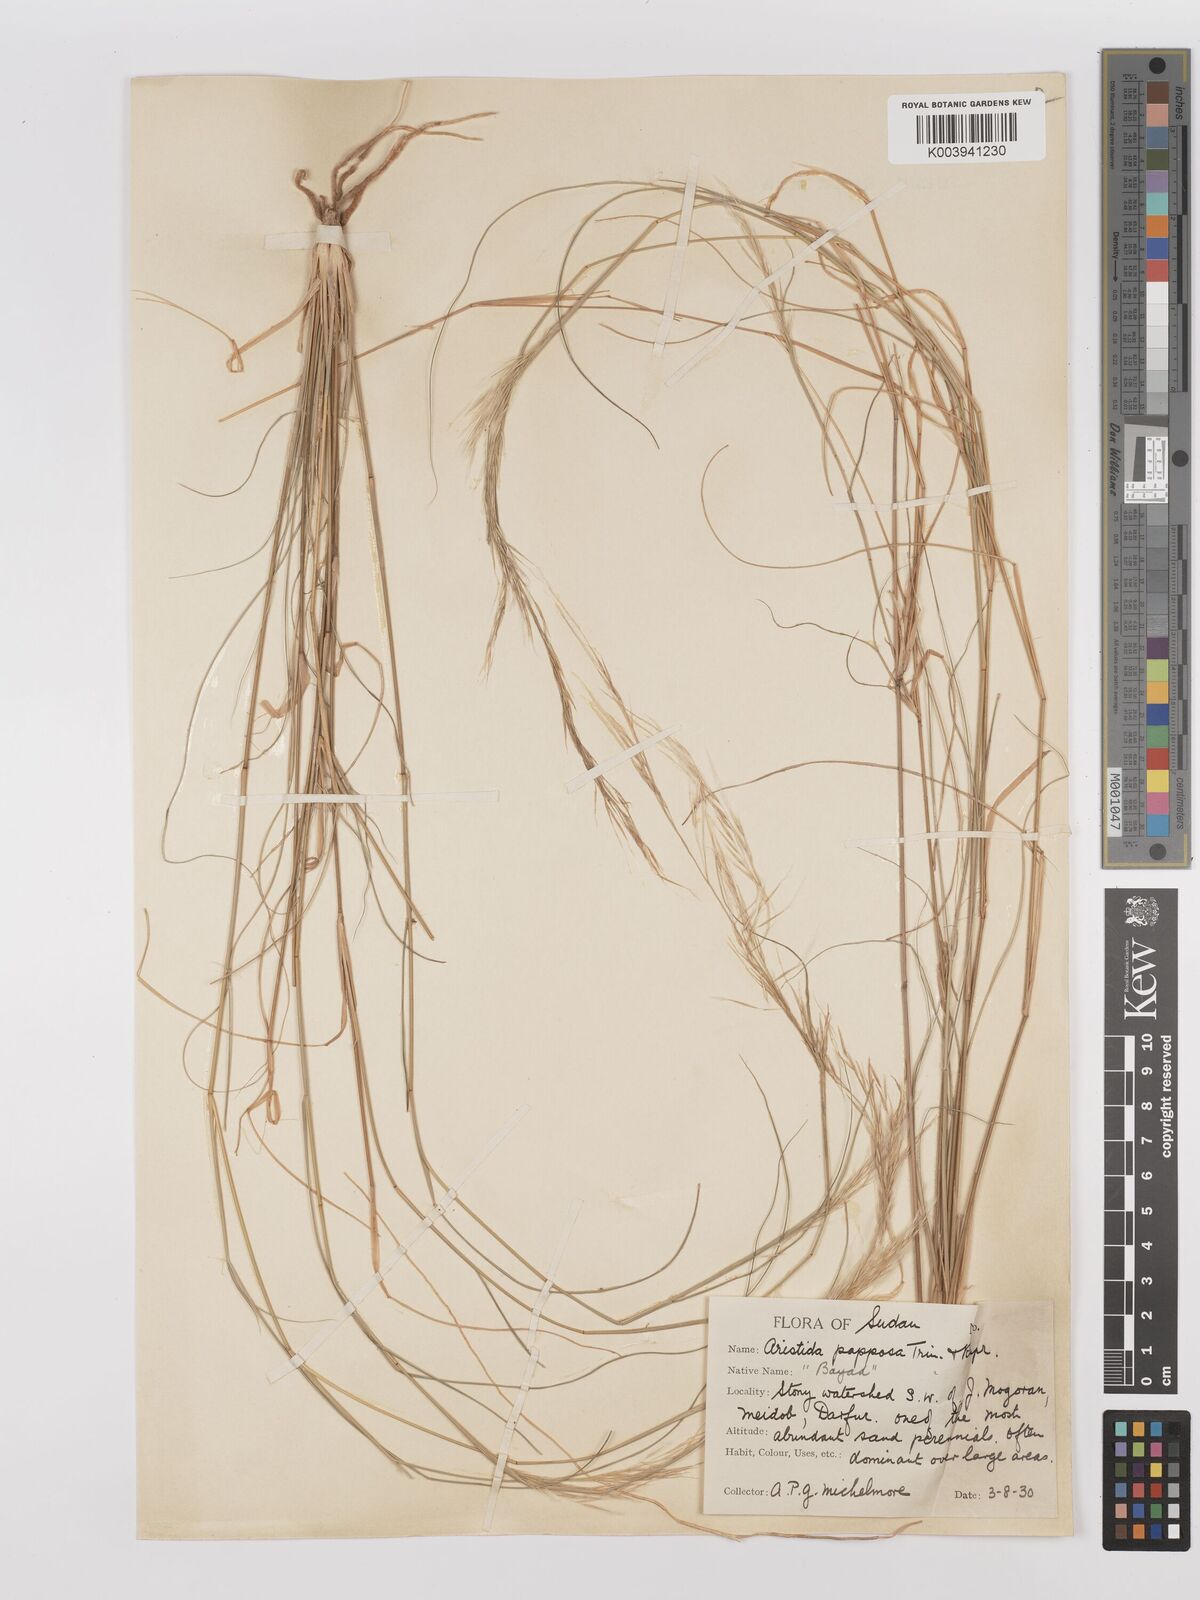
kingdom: Plantae
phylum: Tracheophyta
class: Liliopsida
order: Poales
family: Poaceae
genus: Stipagrostis
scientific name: Stipagrostis uniplumis
